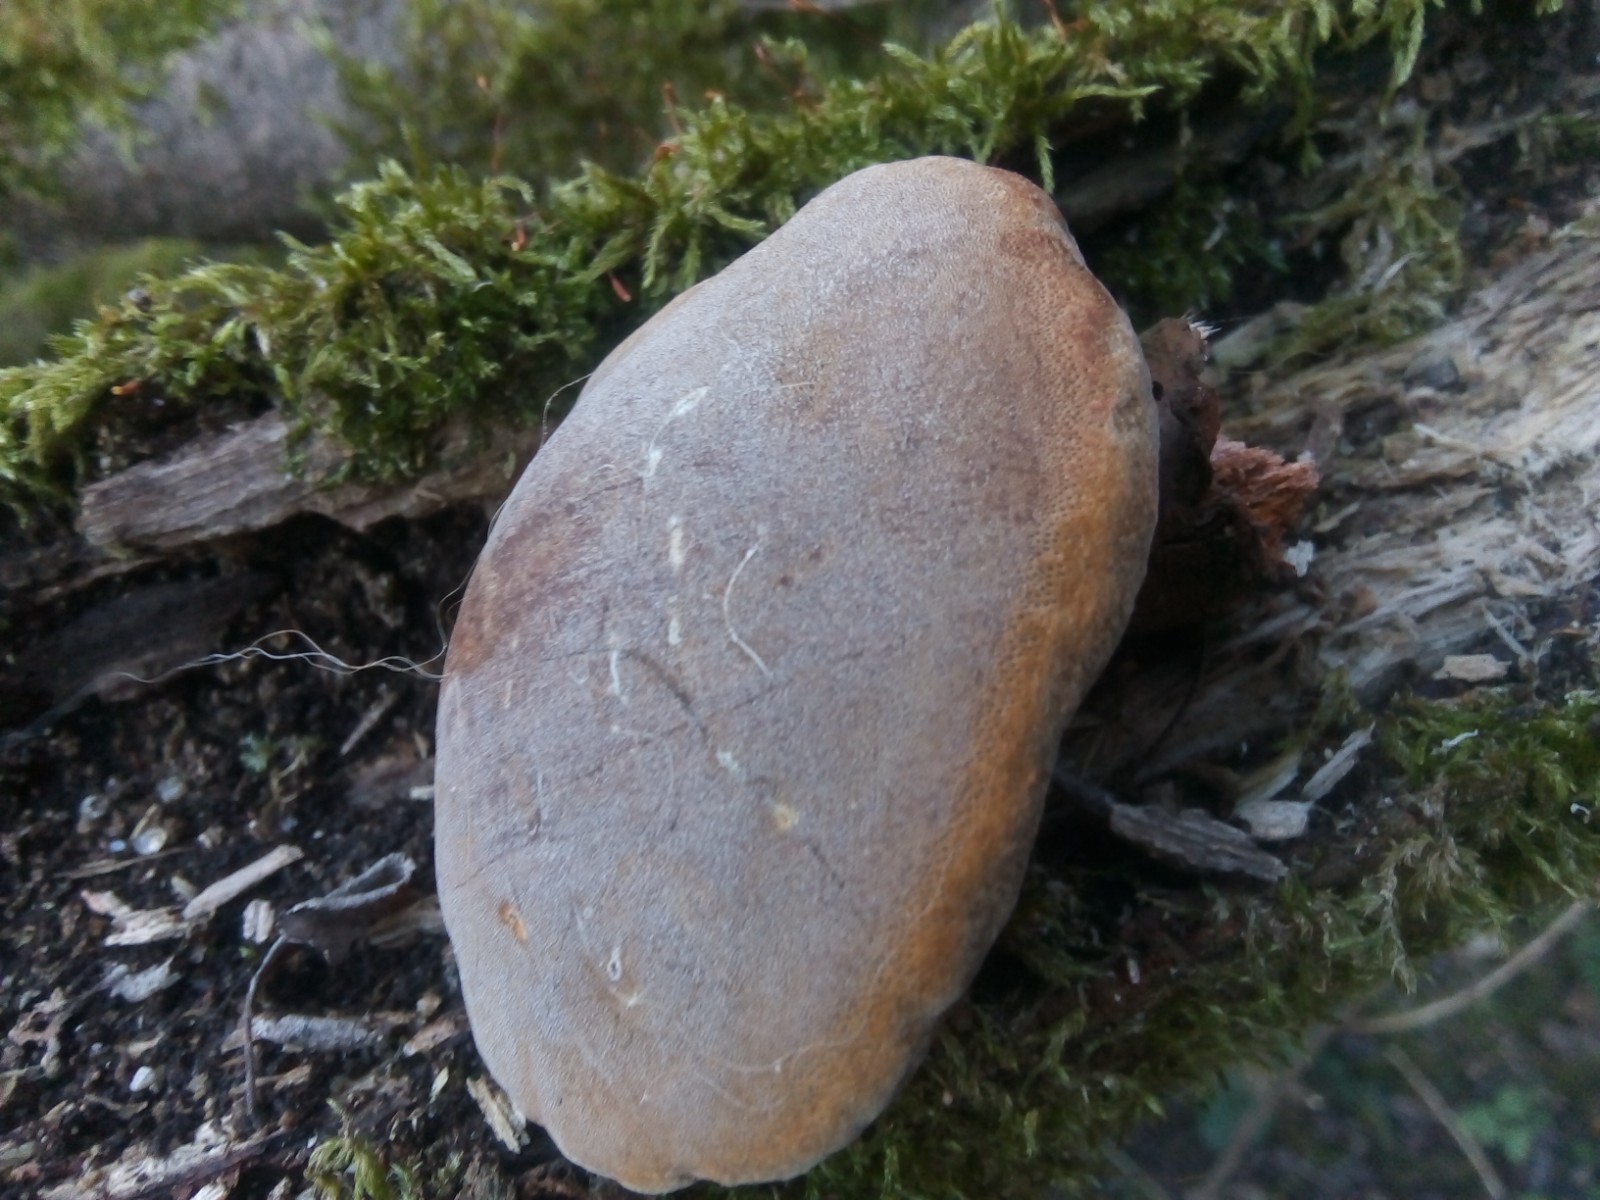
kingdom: Fungi
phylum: Basidiomycota
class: Agaricomycetes
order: Hymenochaetales
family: Hymenochaetaceae
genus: Phellinus
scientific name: Phellinus pomaceus
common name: blomme-ildporesvamp
